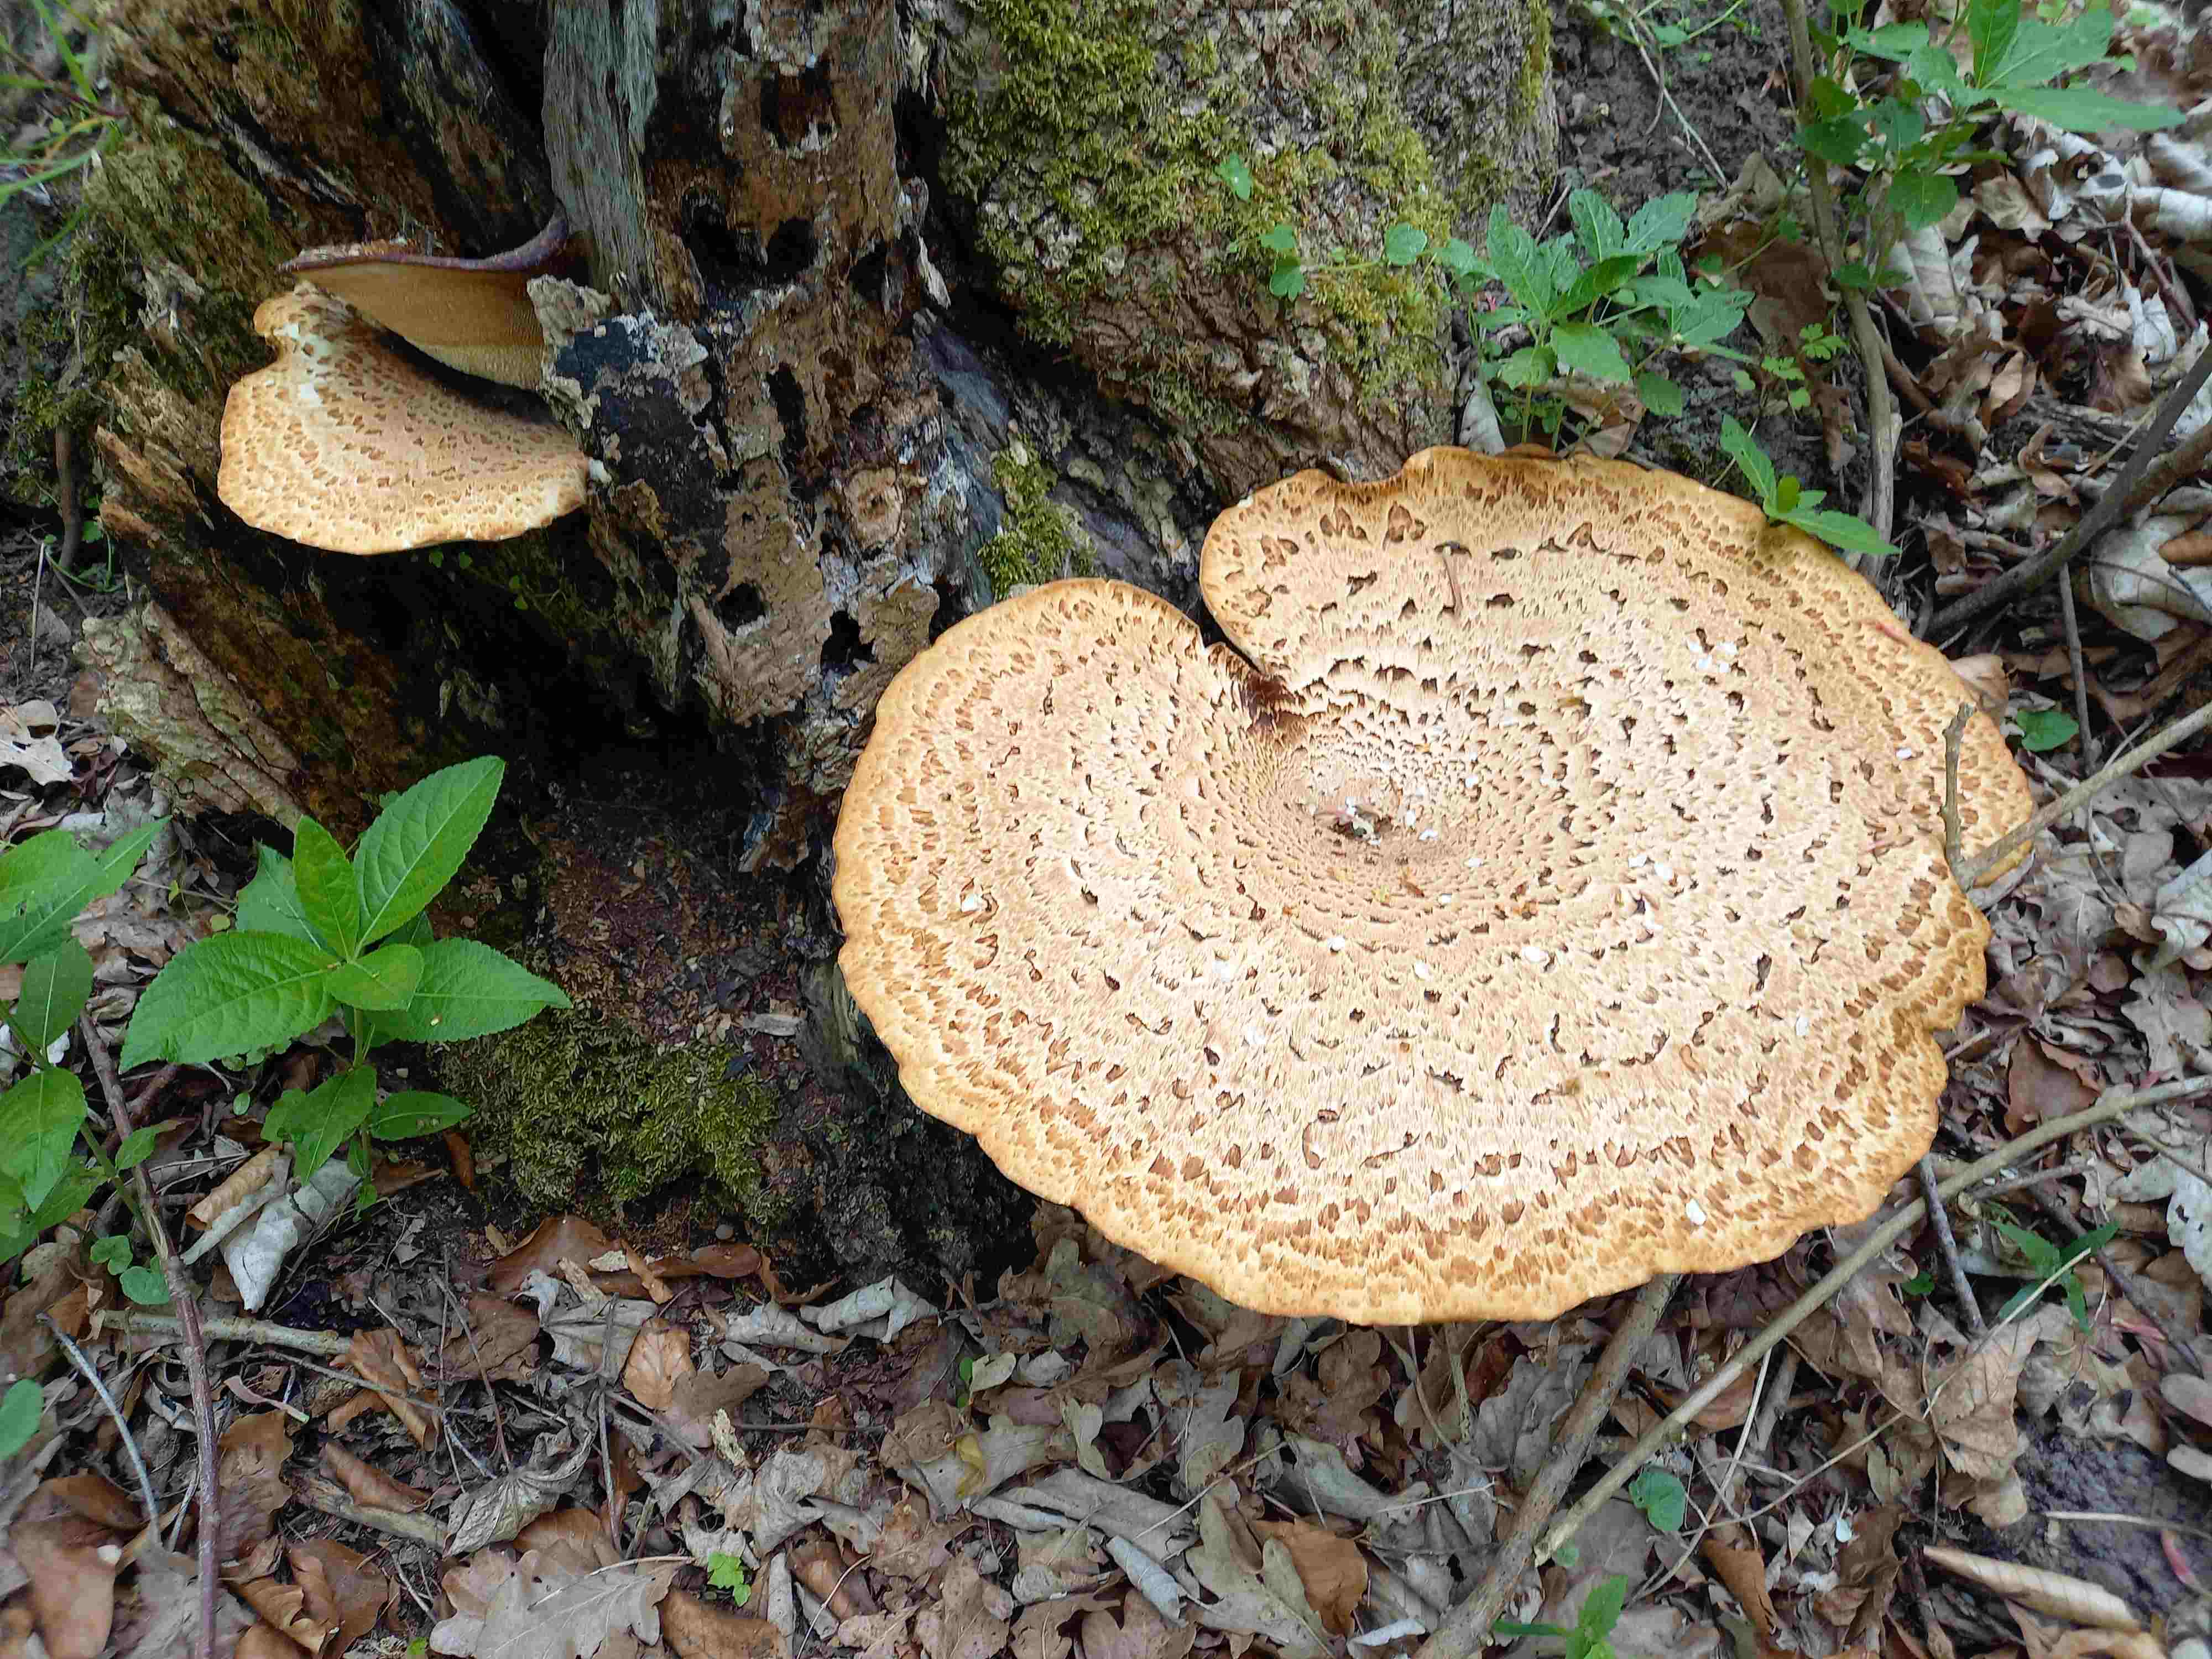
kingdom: Fungi
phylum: Basidiomycota
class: Agaricomycetes
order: Polyporales
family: Polyporaceae
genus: Cerioporus
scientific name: Cerioporus squamosus
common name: skællet stilkporesvamp
